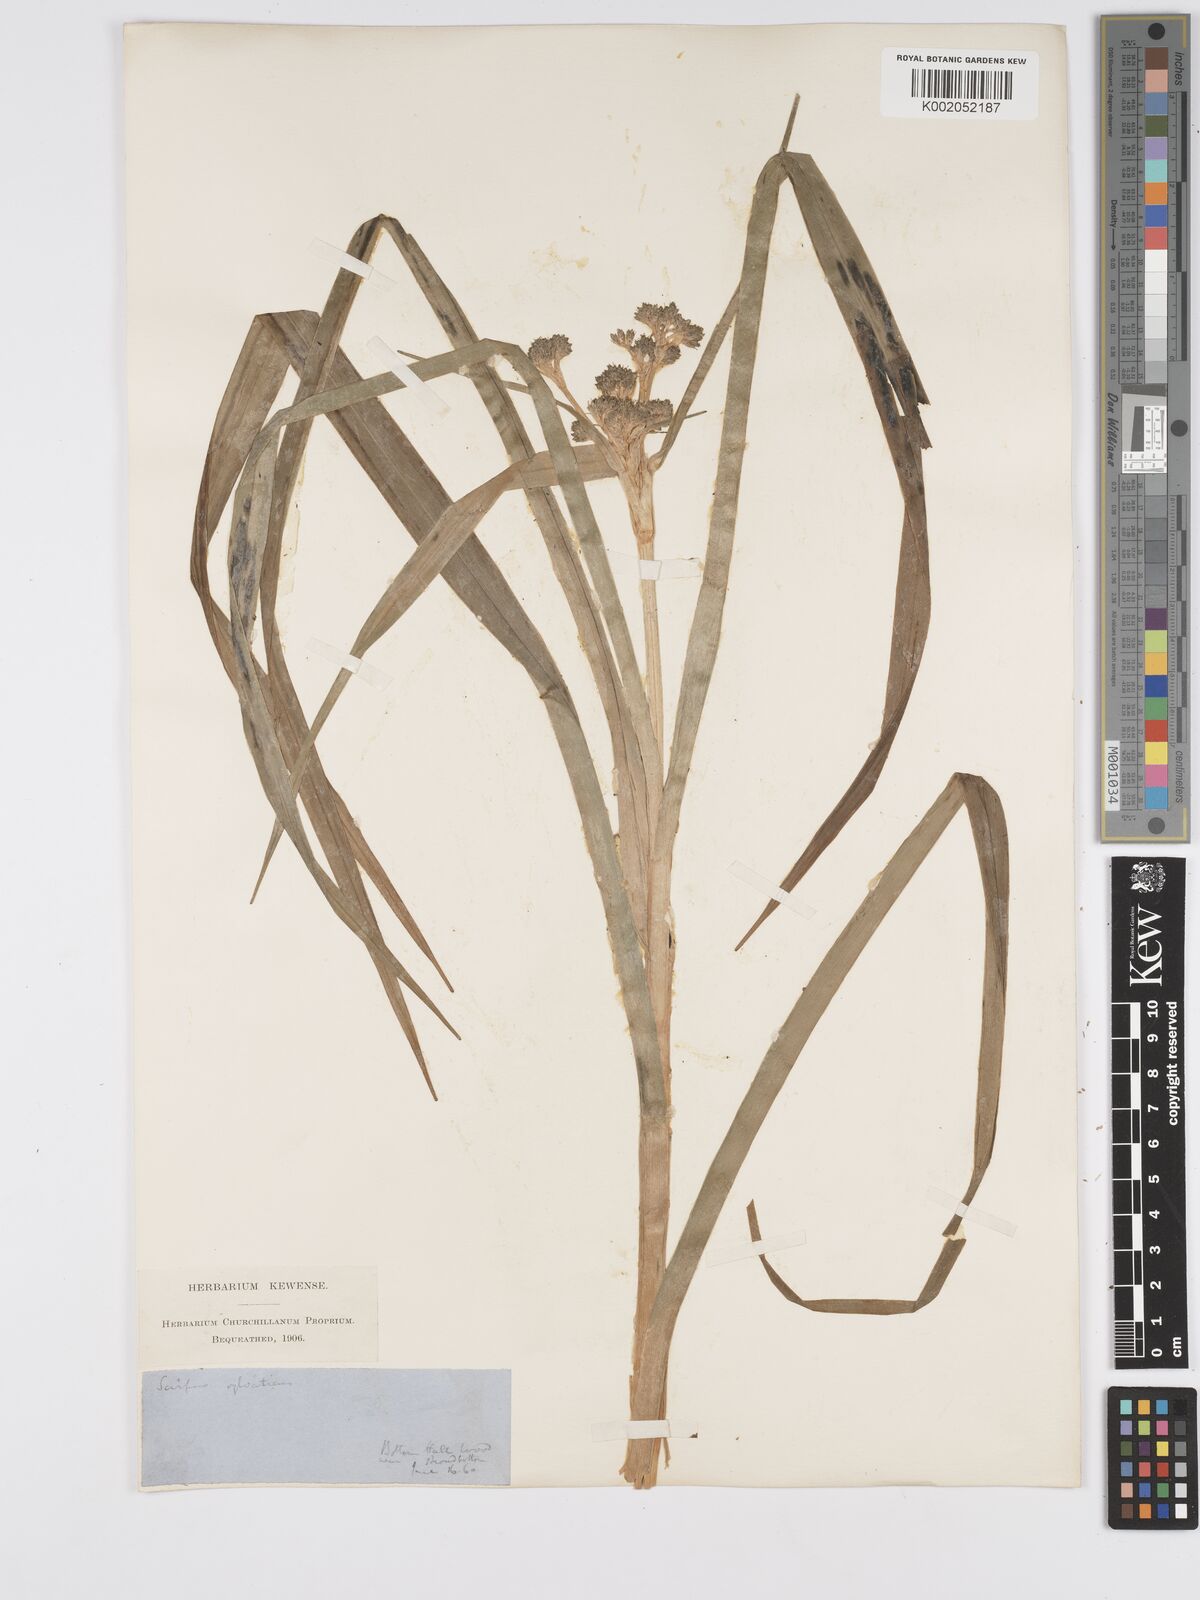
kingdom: Plantae
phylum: Tracheophyta
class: Liliopsida
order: Poales
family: Cyperaceae
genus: Scirpus
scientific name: Scirpus sylvaticus
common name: Wood club-rush
